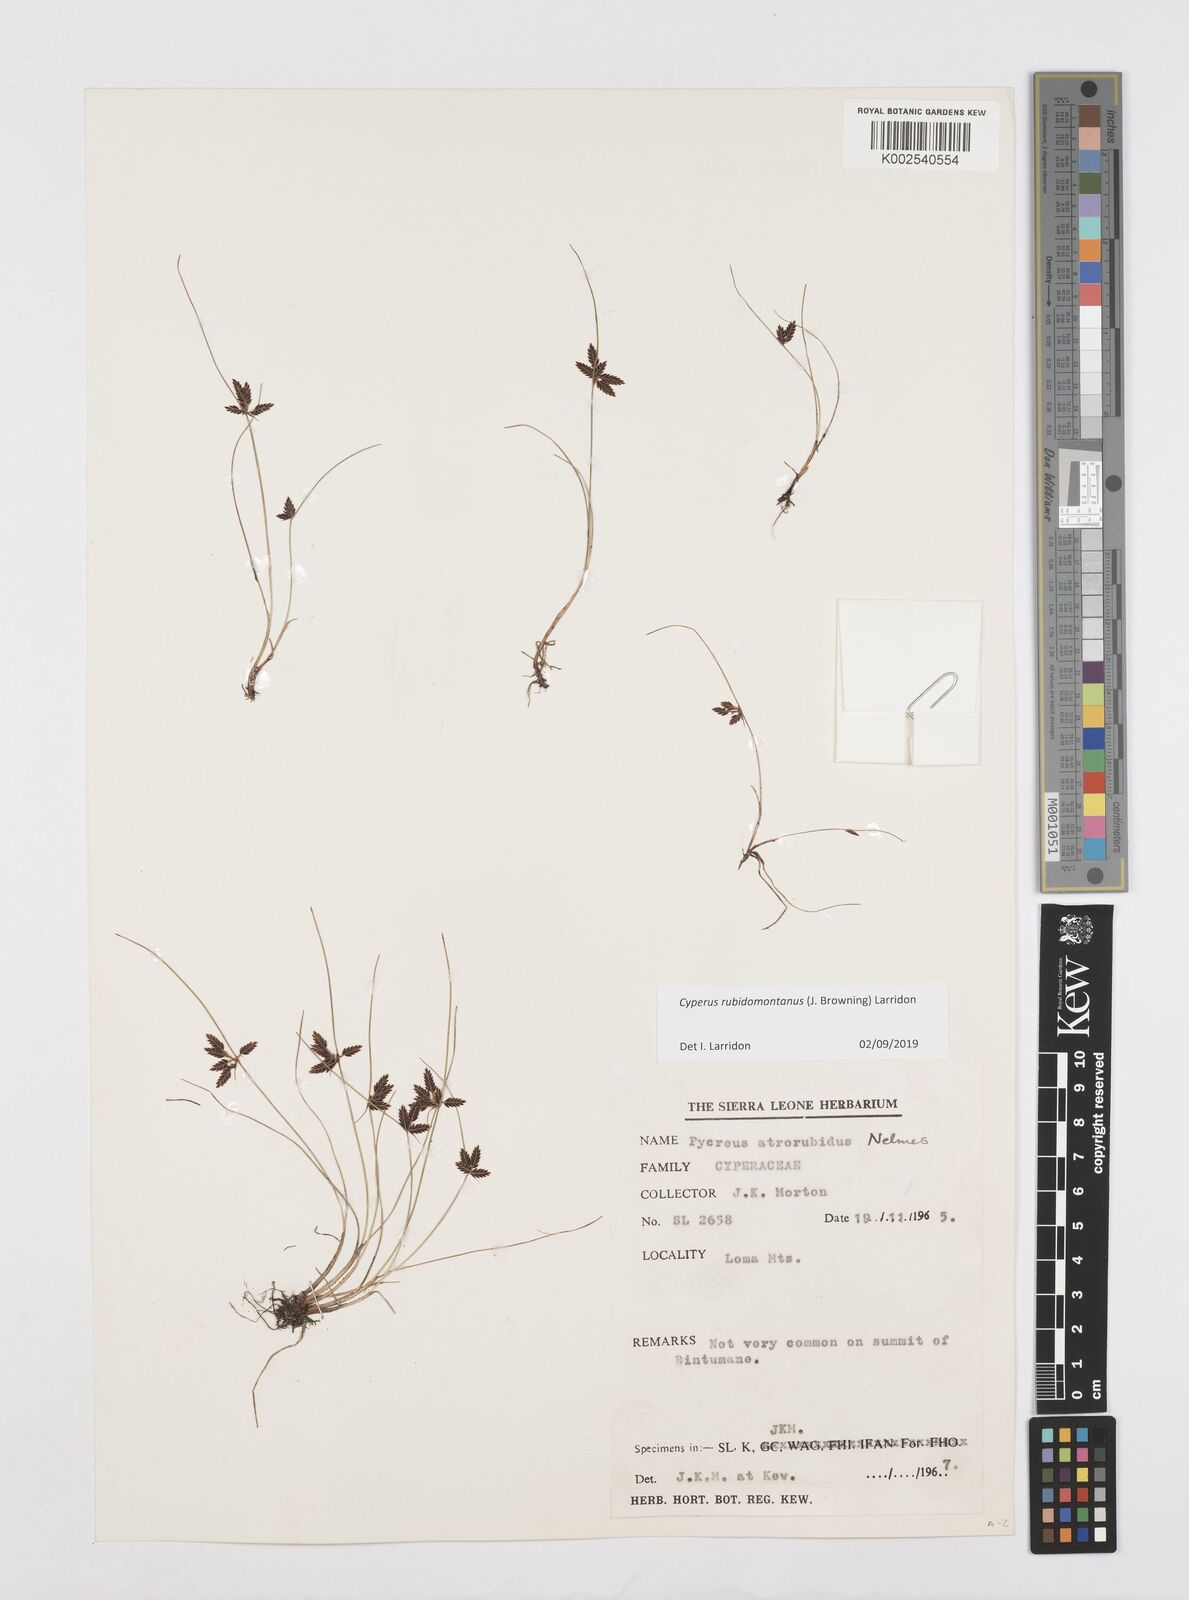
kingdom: Plantae
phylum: Tracheophyta
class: Liliopsida
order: Poales
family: Cyperaceae
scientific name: Cyperaceae
